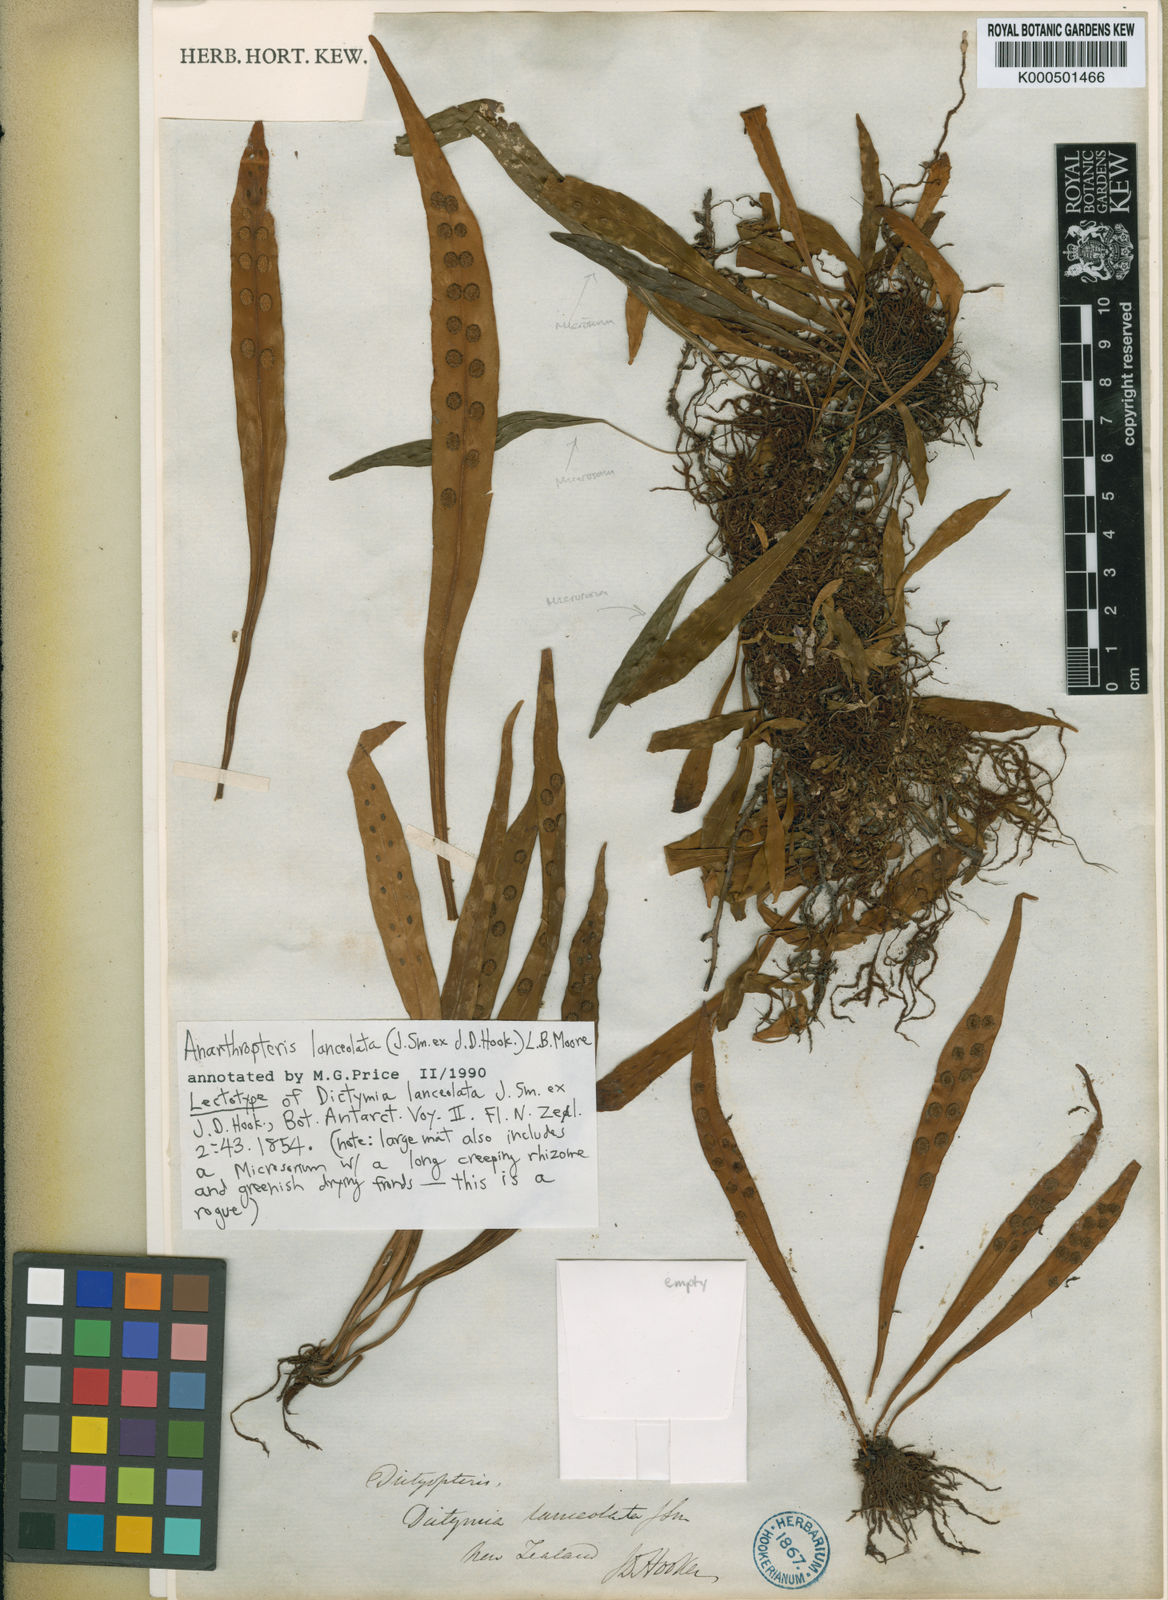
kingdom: Plantae
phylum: Tracheophyta
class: Polypodiopsida
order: Polypodiales
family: Polypodiaceae
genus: Loxogramme
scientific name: Loxogramme dictyopteris
